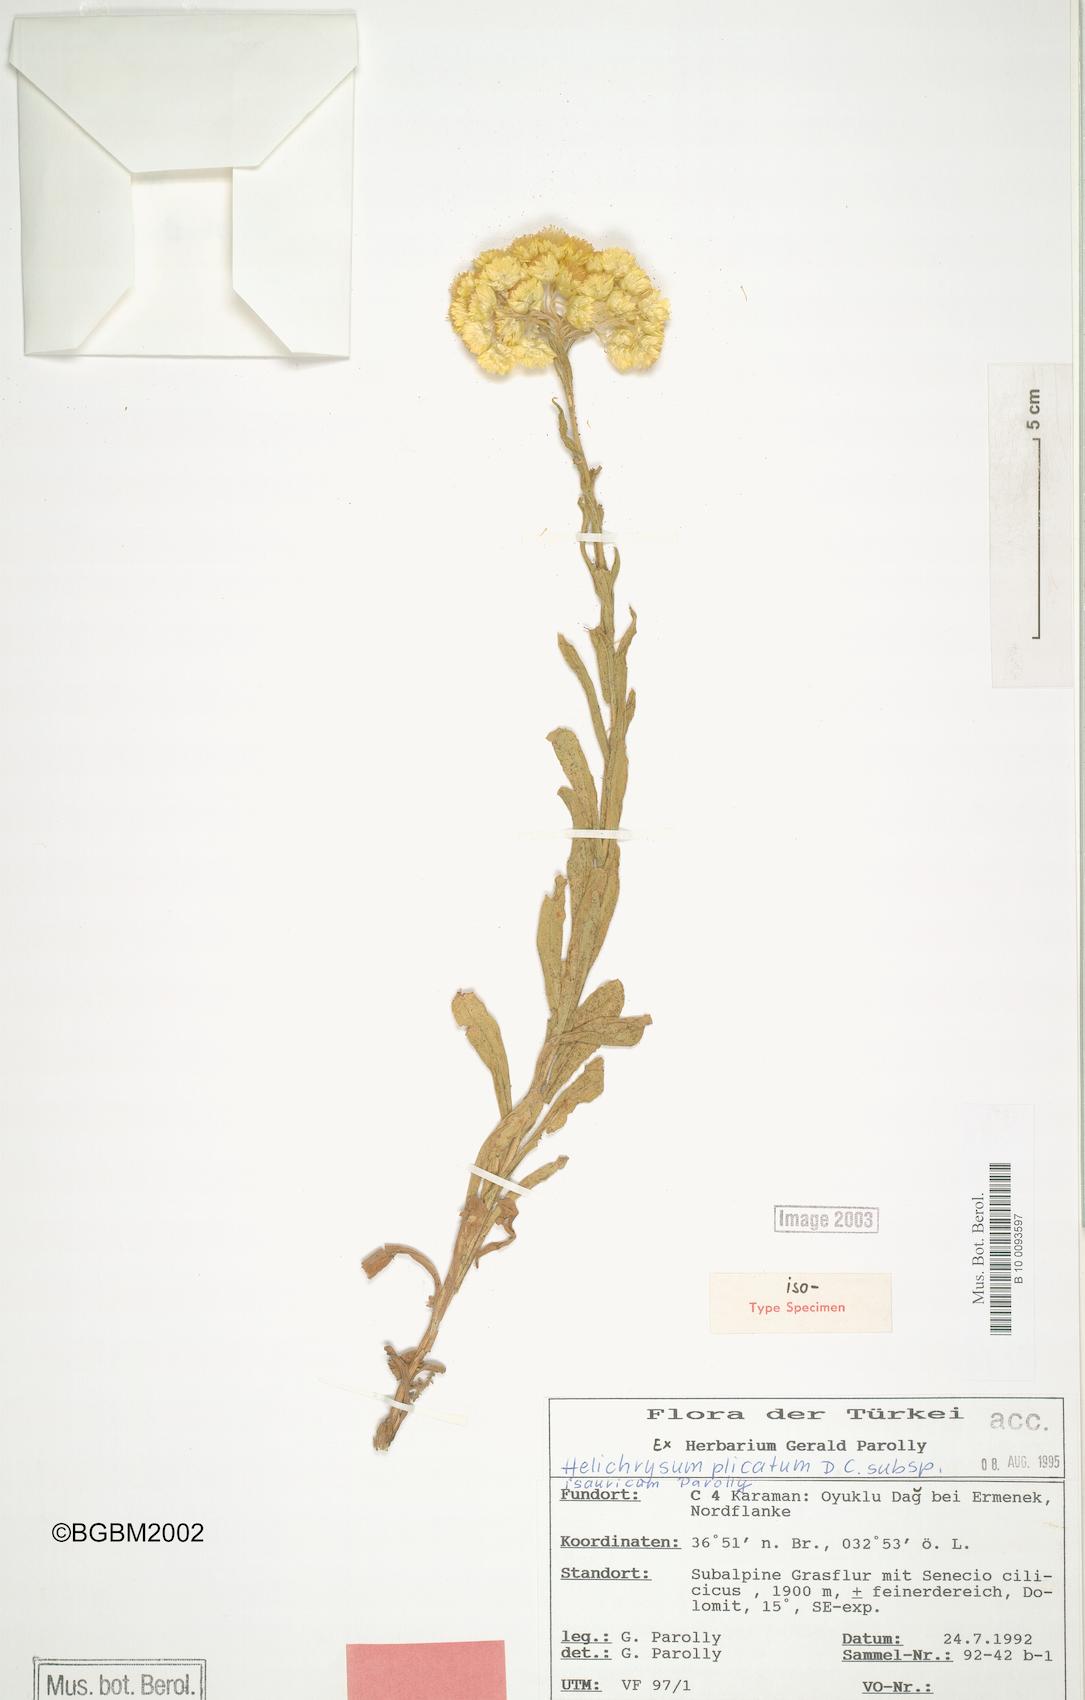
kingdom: Plantae
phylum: Tracheophyta
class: Magnoliopsida
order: Asterales
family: Asteraceae
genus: Helichrysum
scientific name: Helichrysum plicatum
